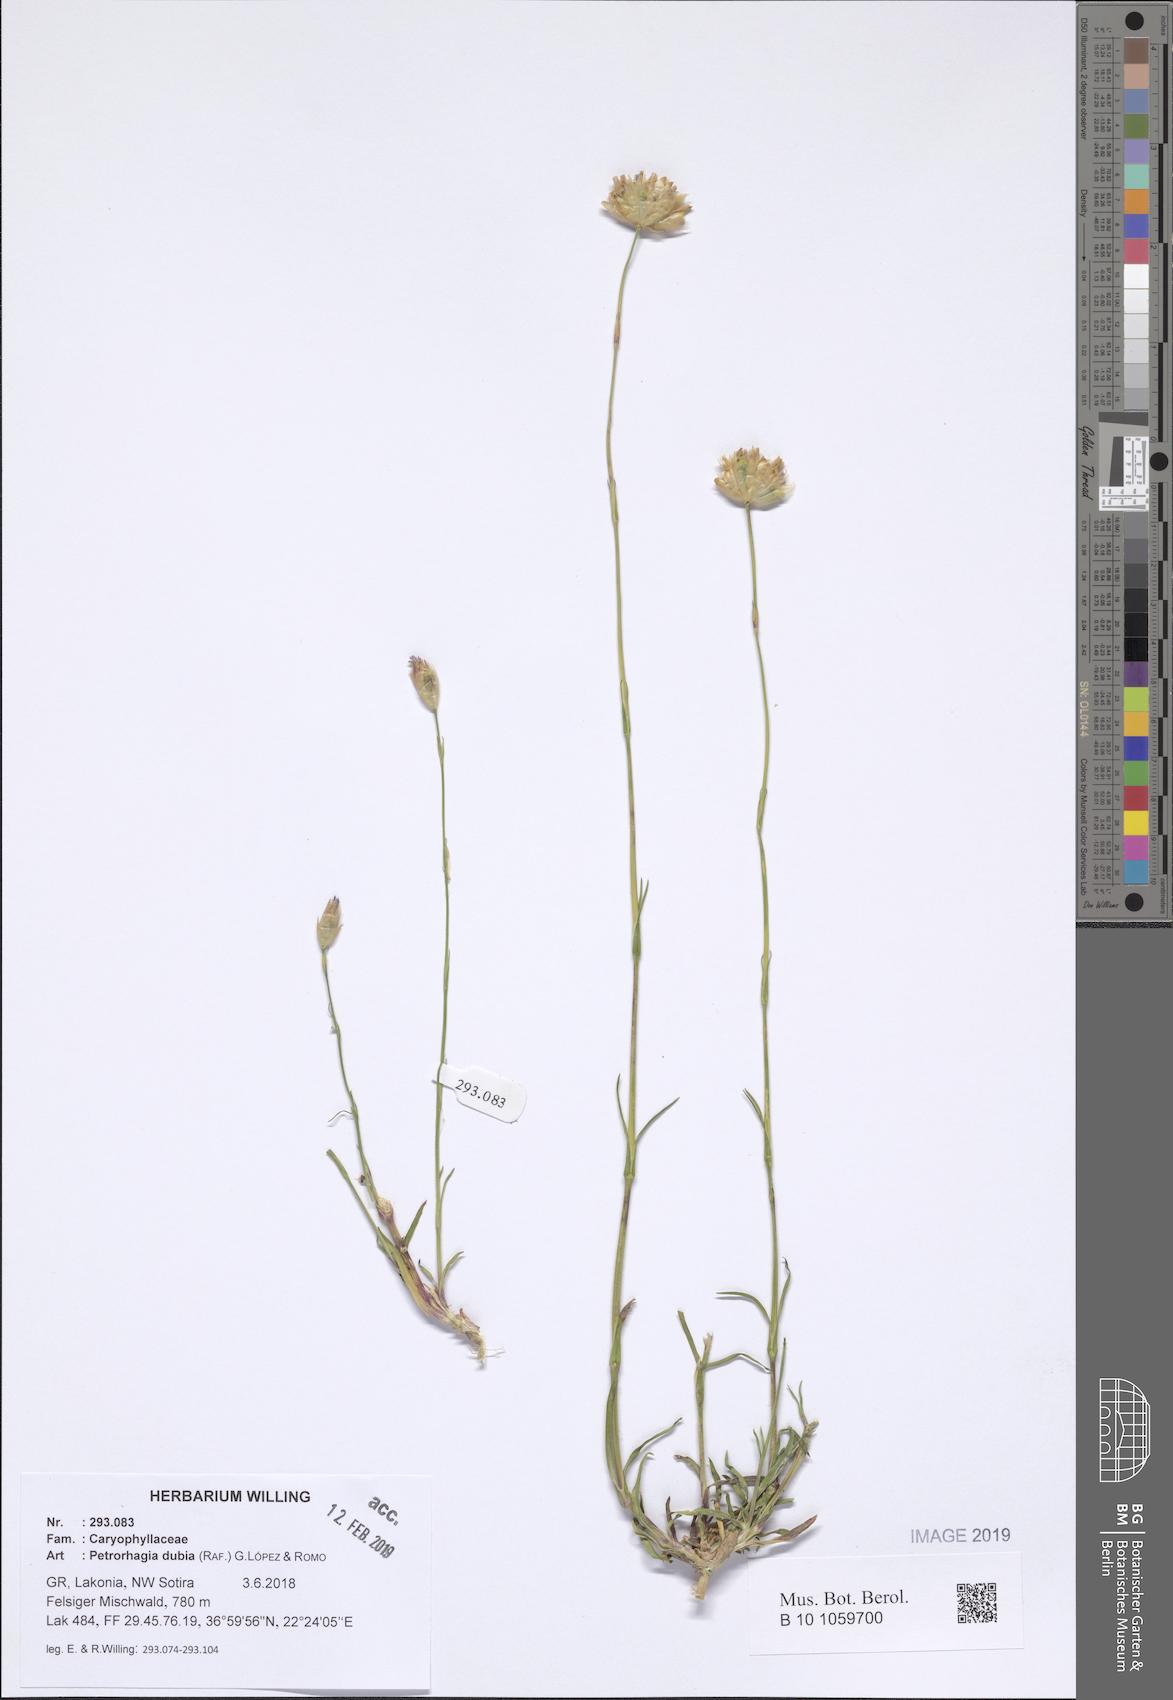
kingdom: Plantae
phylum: Tracheophyta
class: Magnoliopsida
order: Caryophyllales
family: Caryophyllaceae
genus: Petrorhagia
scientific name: Petrorhagia dubia
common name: Hairypink
